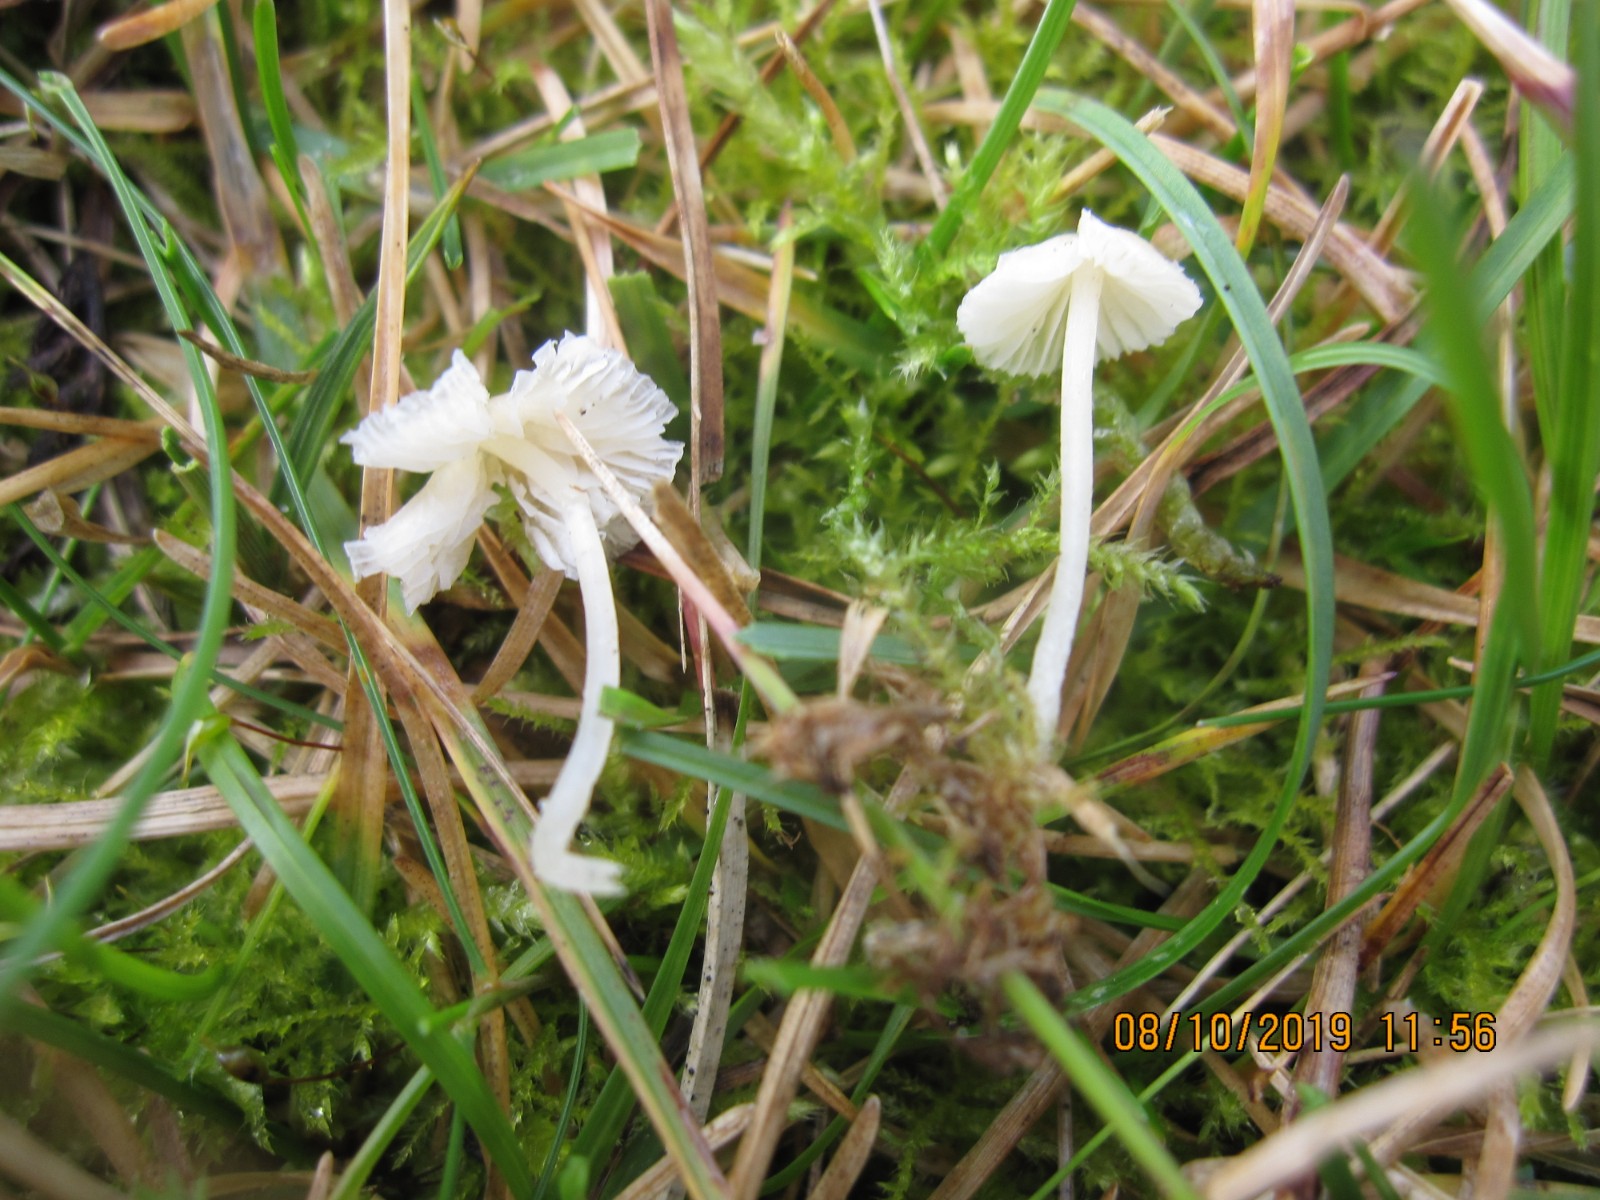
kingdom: Fungi
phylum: Basidiomycota
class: Agaricomycetes
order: Agaricales
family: Mycenaceae
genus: Atheniella
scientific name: Atheniella flavoalba
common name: gulhvid huesvamp
